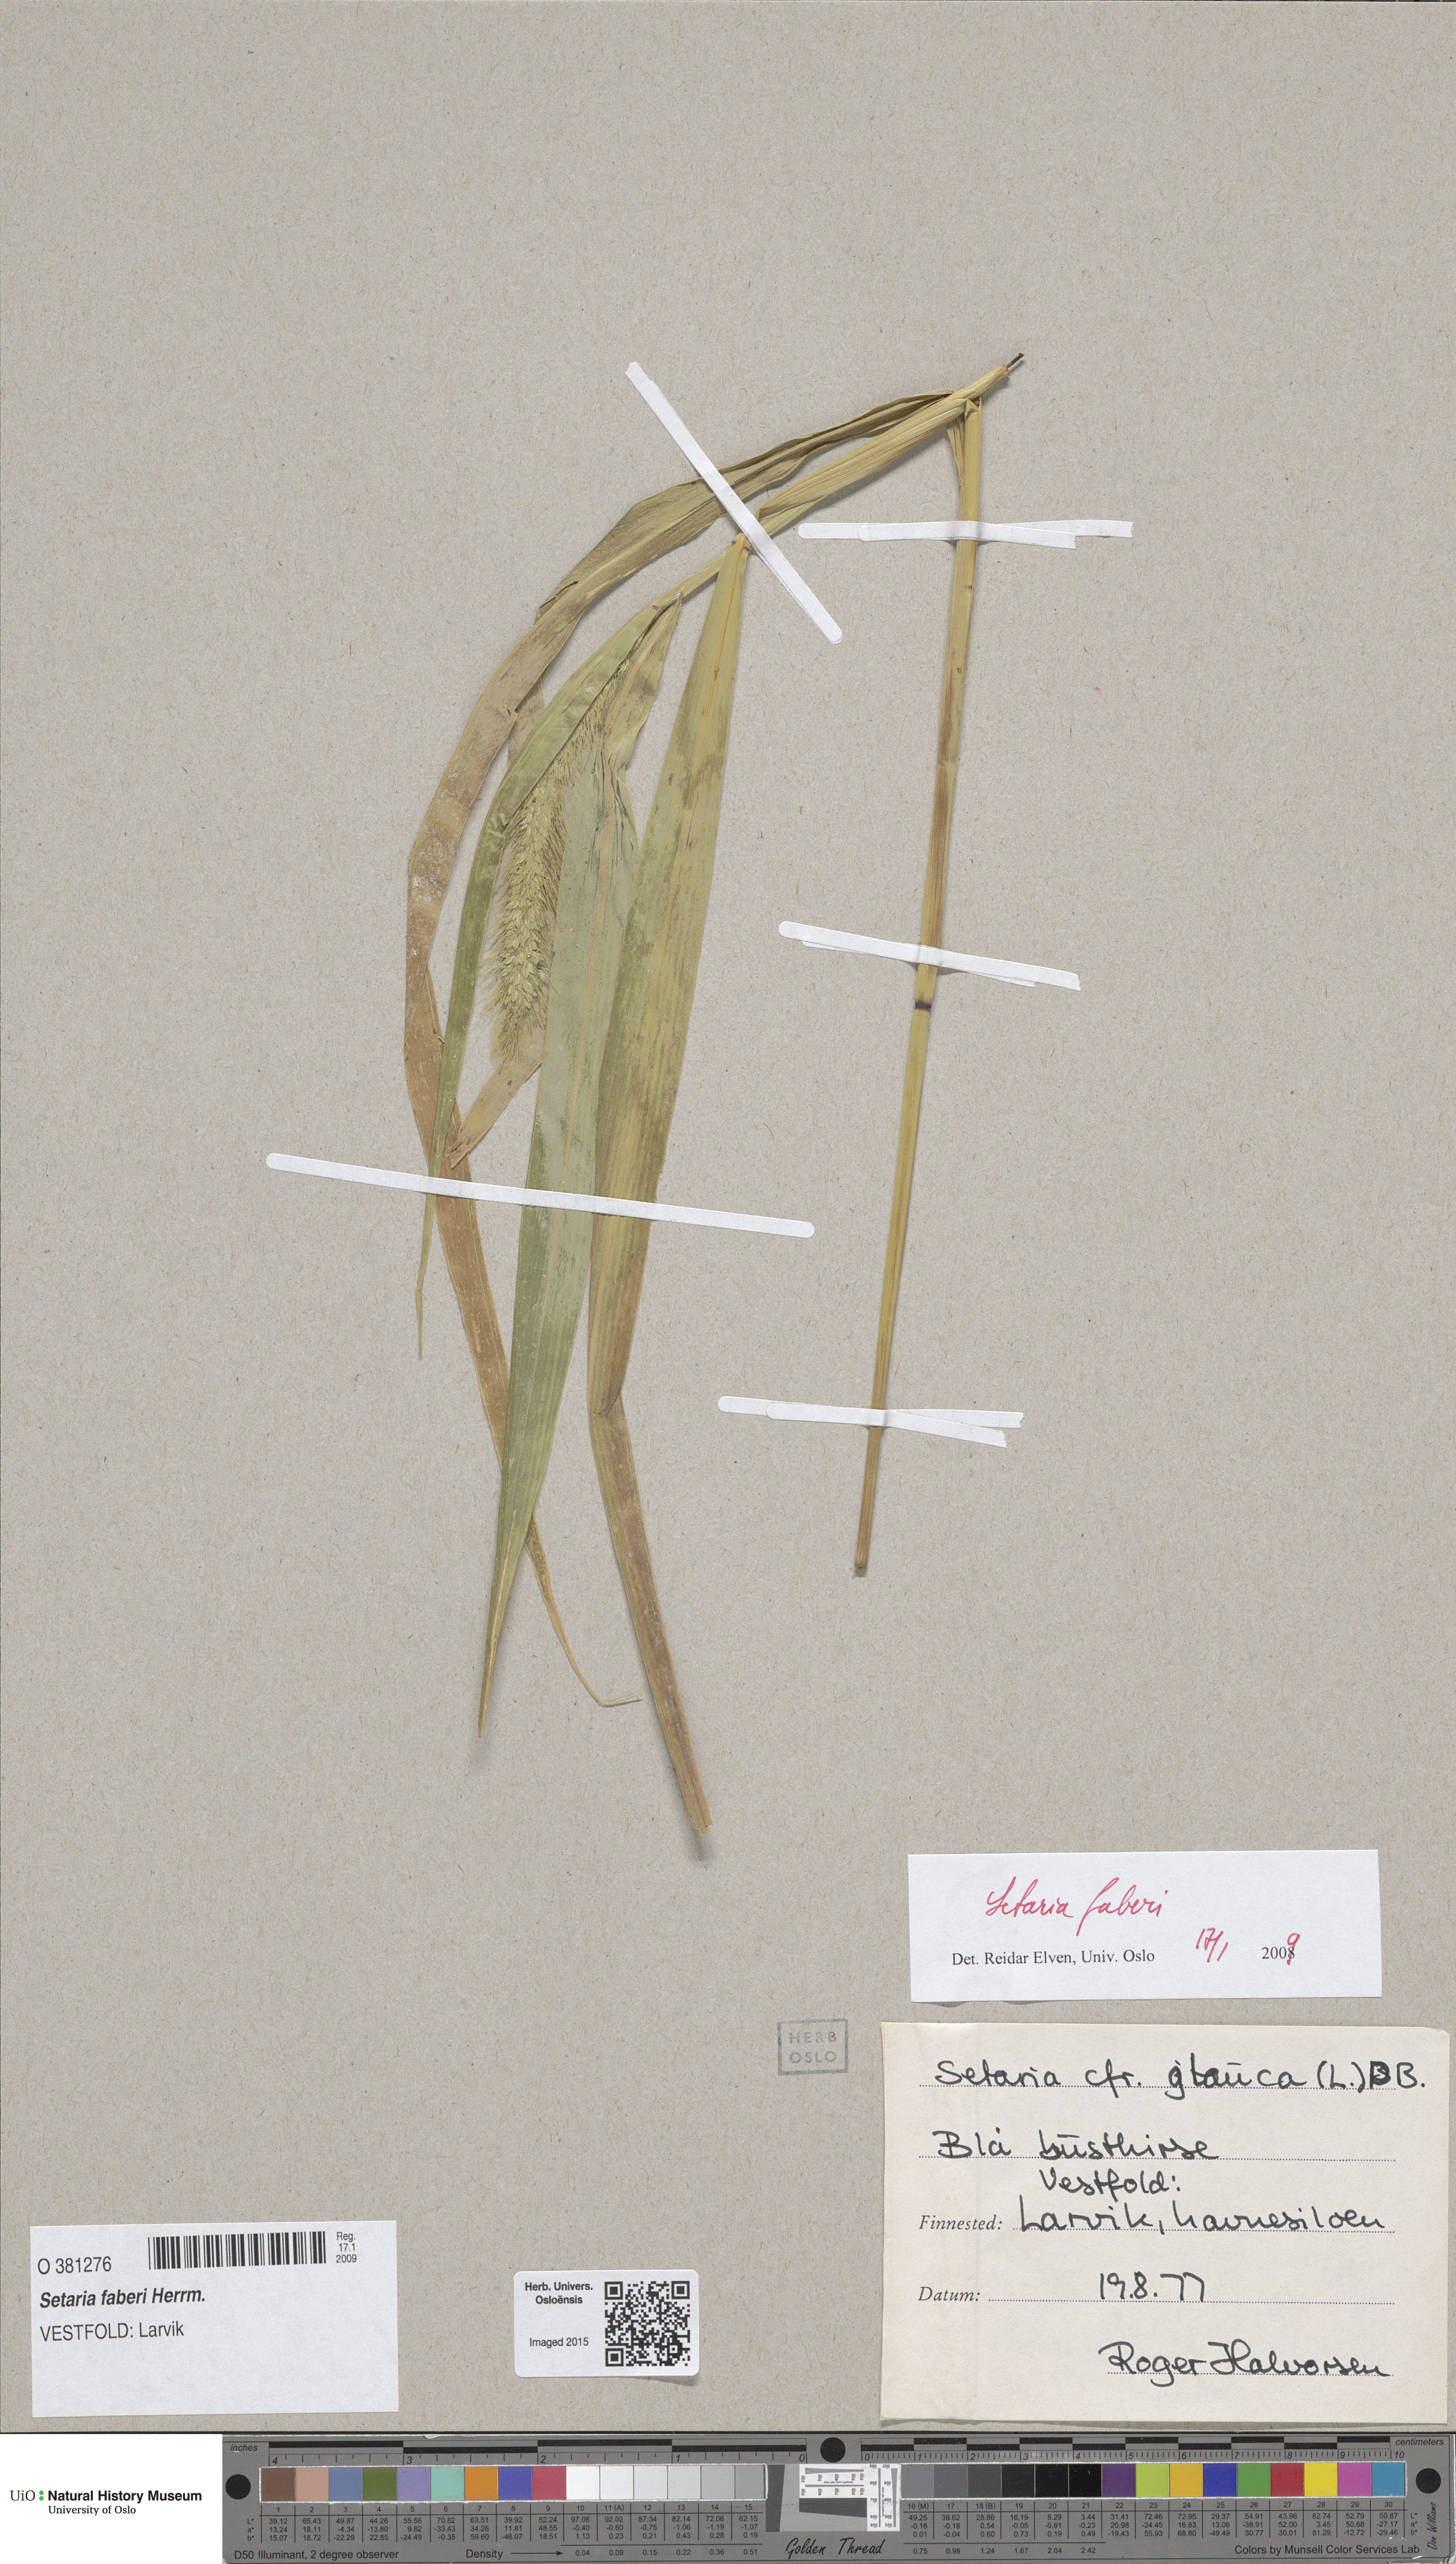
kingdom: Plantae
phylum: Tracheophyta
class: Liliopsida
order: Poales
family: Poaceae
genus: Setaria
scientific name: Setaria faberi
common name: Nodding bristle-grass
